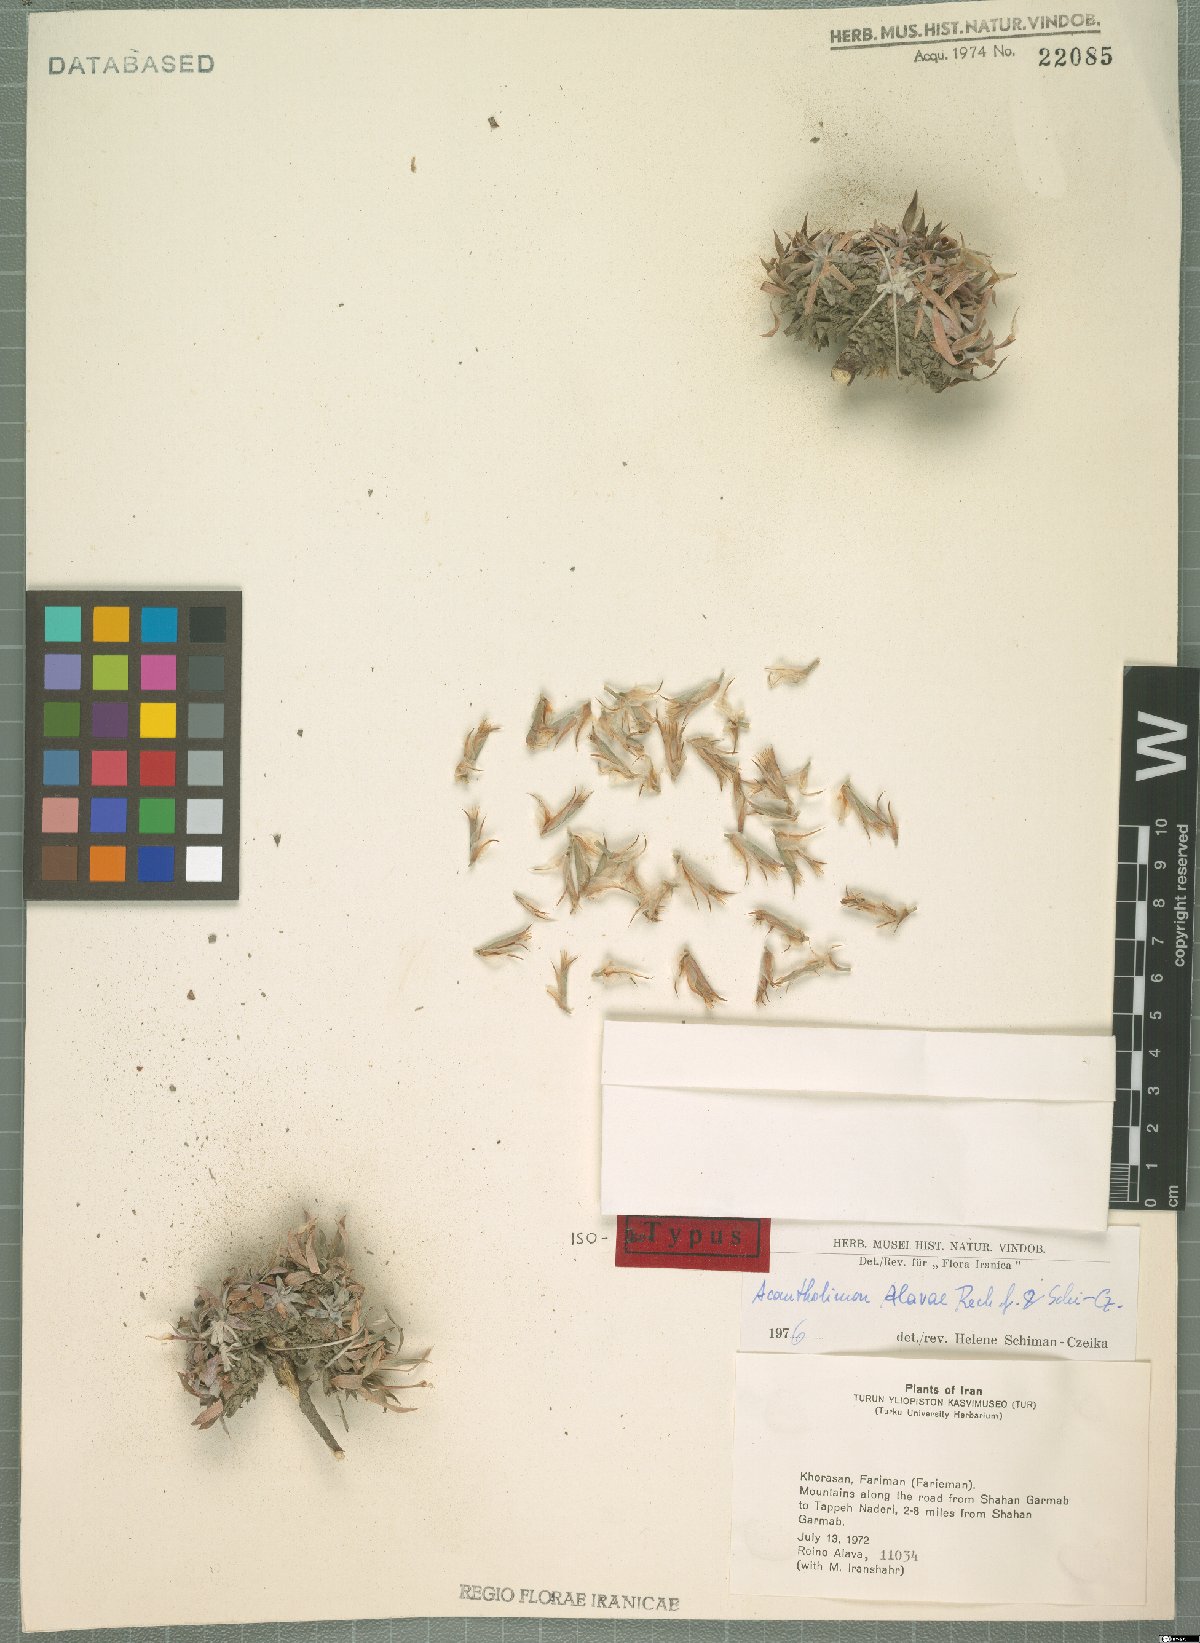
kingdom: Plantae
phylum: Tracheophyta
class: Magnoliopsida
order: Caryophyllales
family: Plumbaginaceae
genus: Acantholimon
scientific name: Acantholimon alavae
